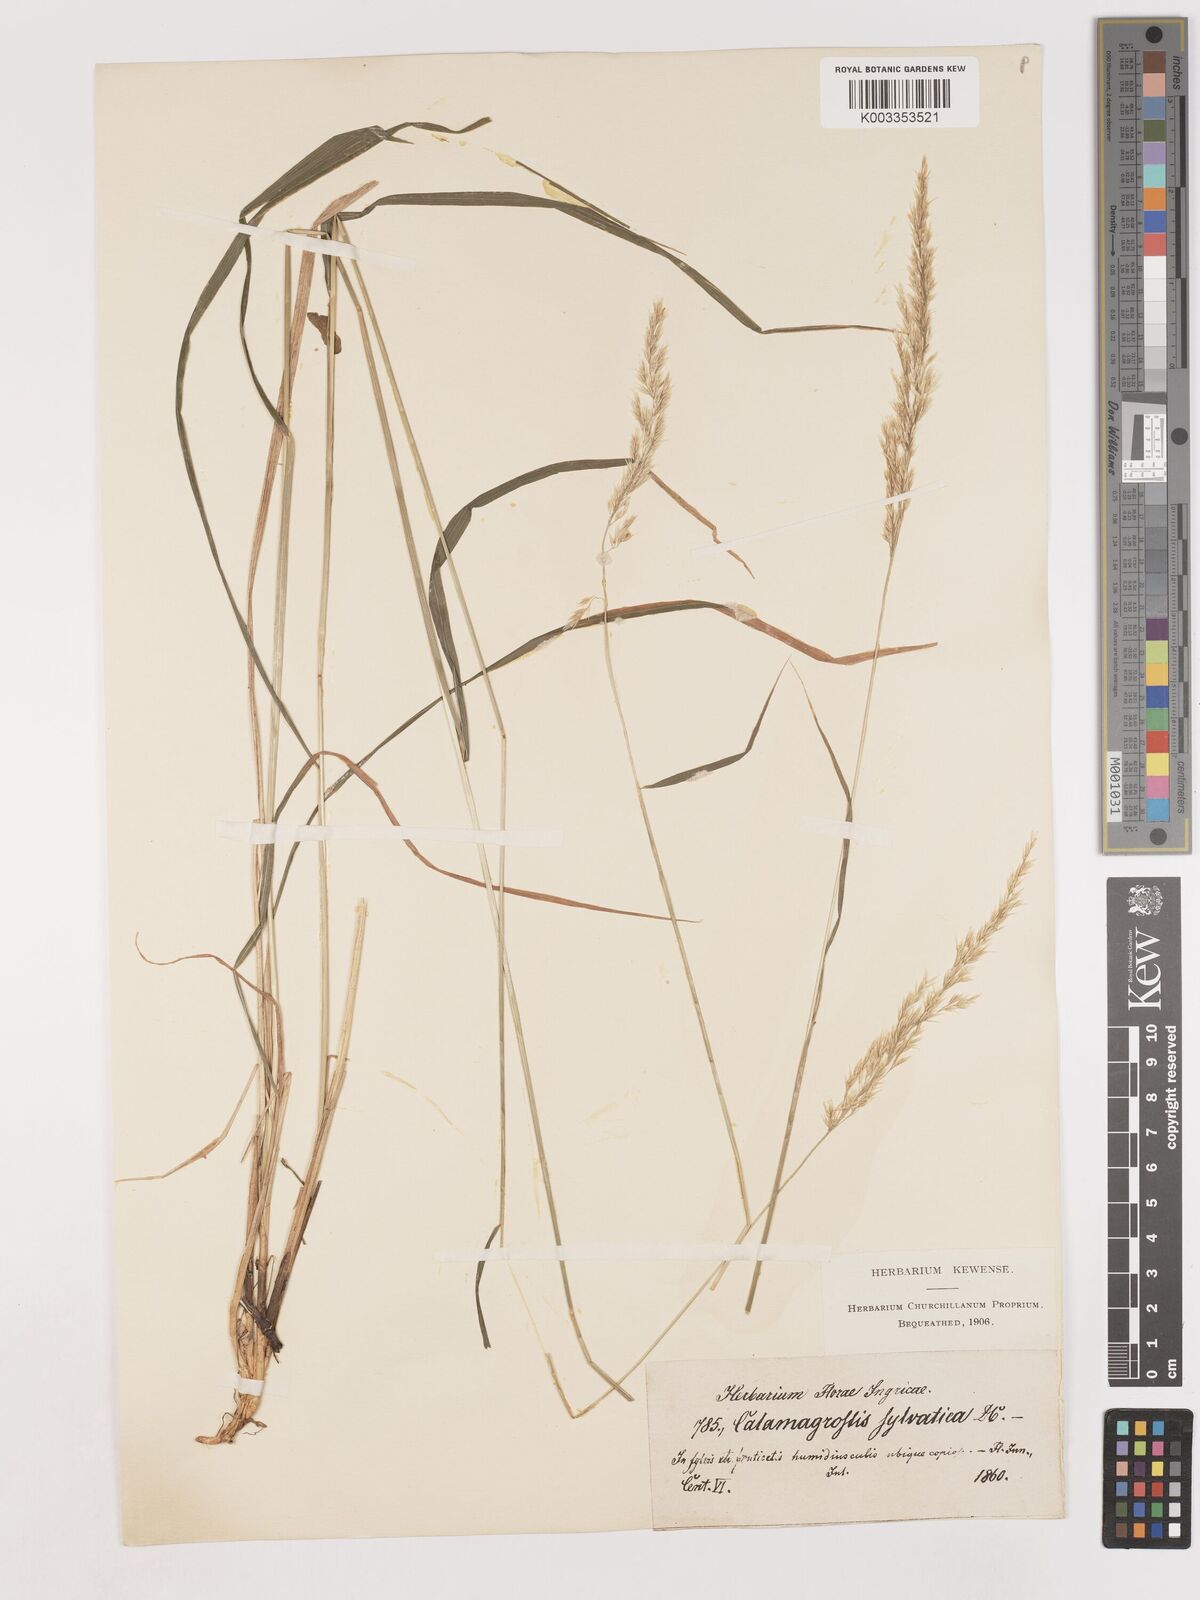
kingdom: Plantae
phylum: Tracheophyta
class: Liliopsida
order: Poales
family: Poaceae
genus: Calamagrostis
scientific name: Calamagrostis
